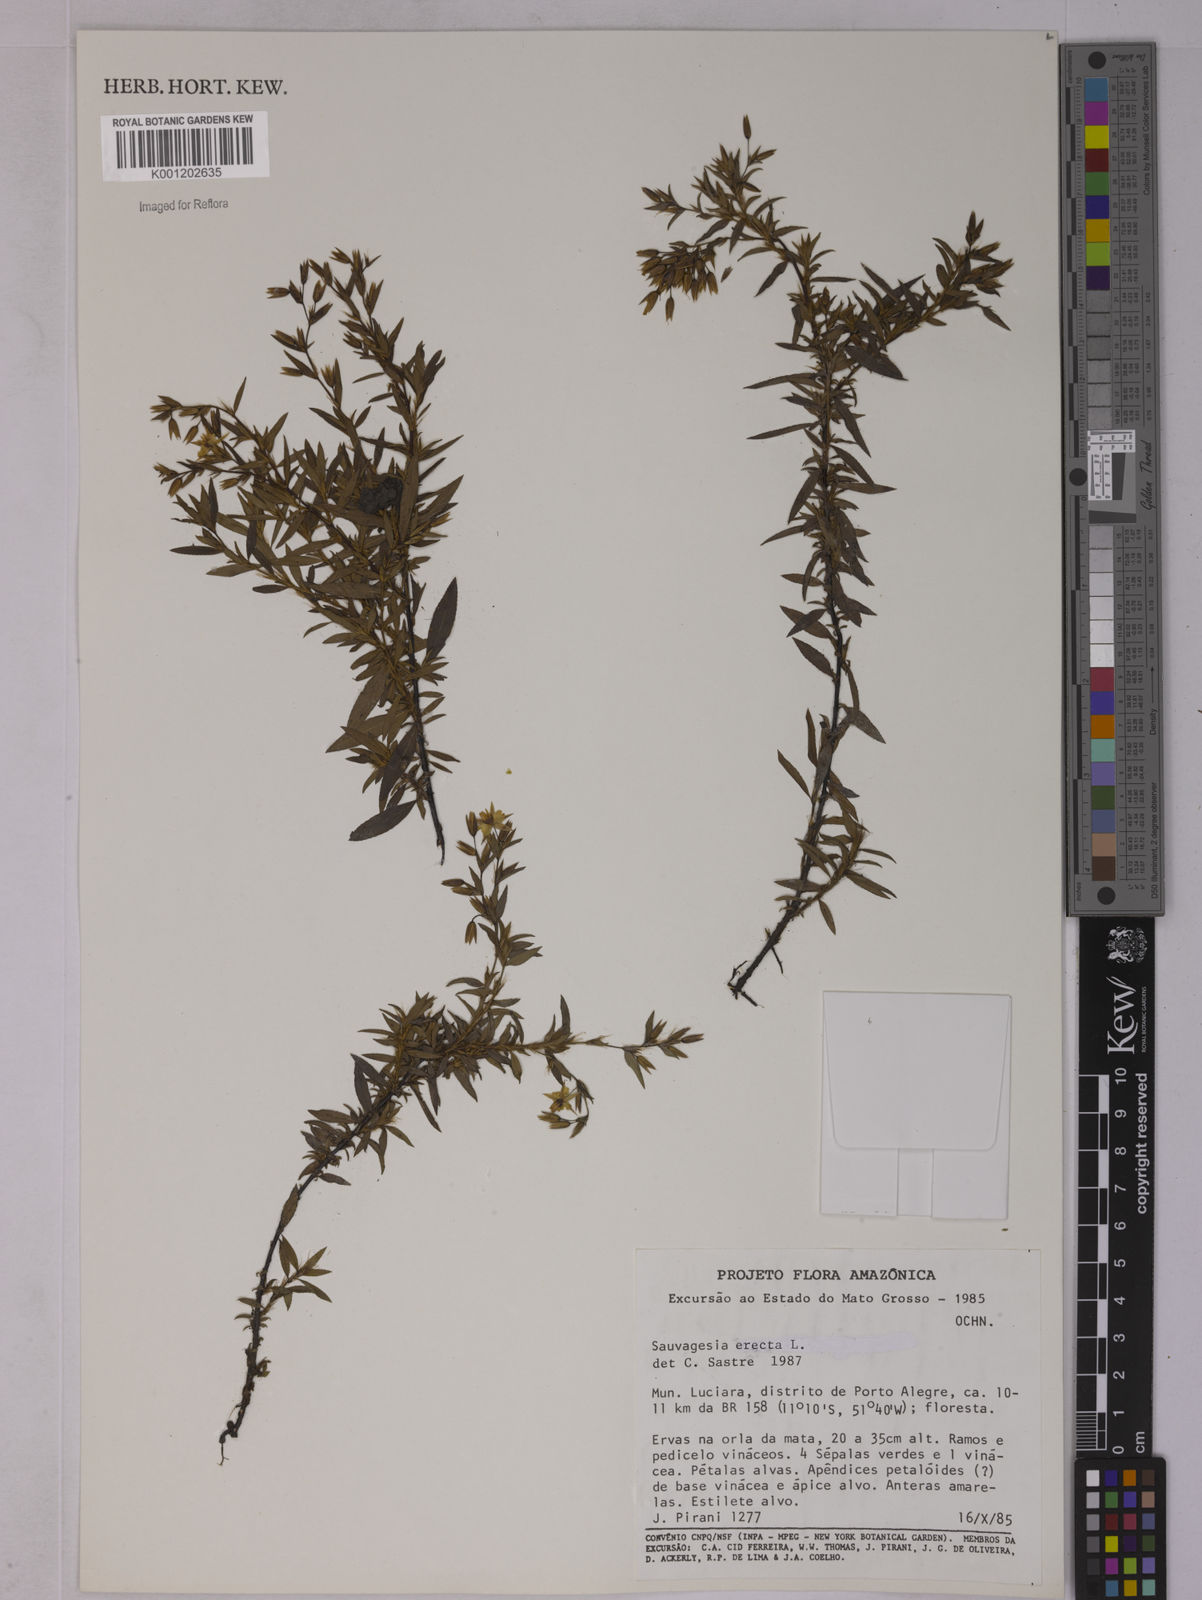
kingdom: Plantae
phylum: Tracheophyta
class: Magnoliopsida
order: Malpighiales
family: Ochnaceae
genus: Sauvagesia
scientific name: Sauvagesia erecta
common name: Creole tea
